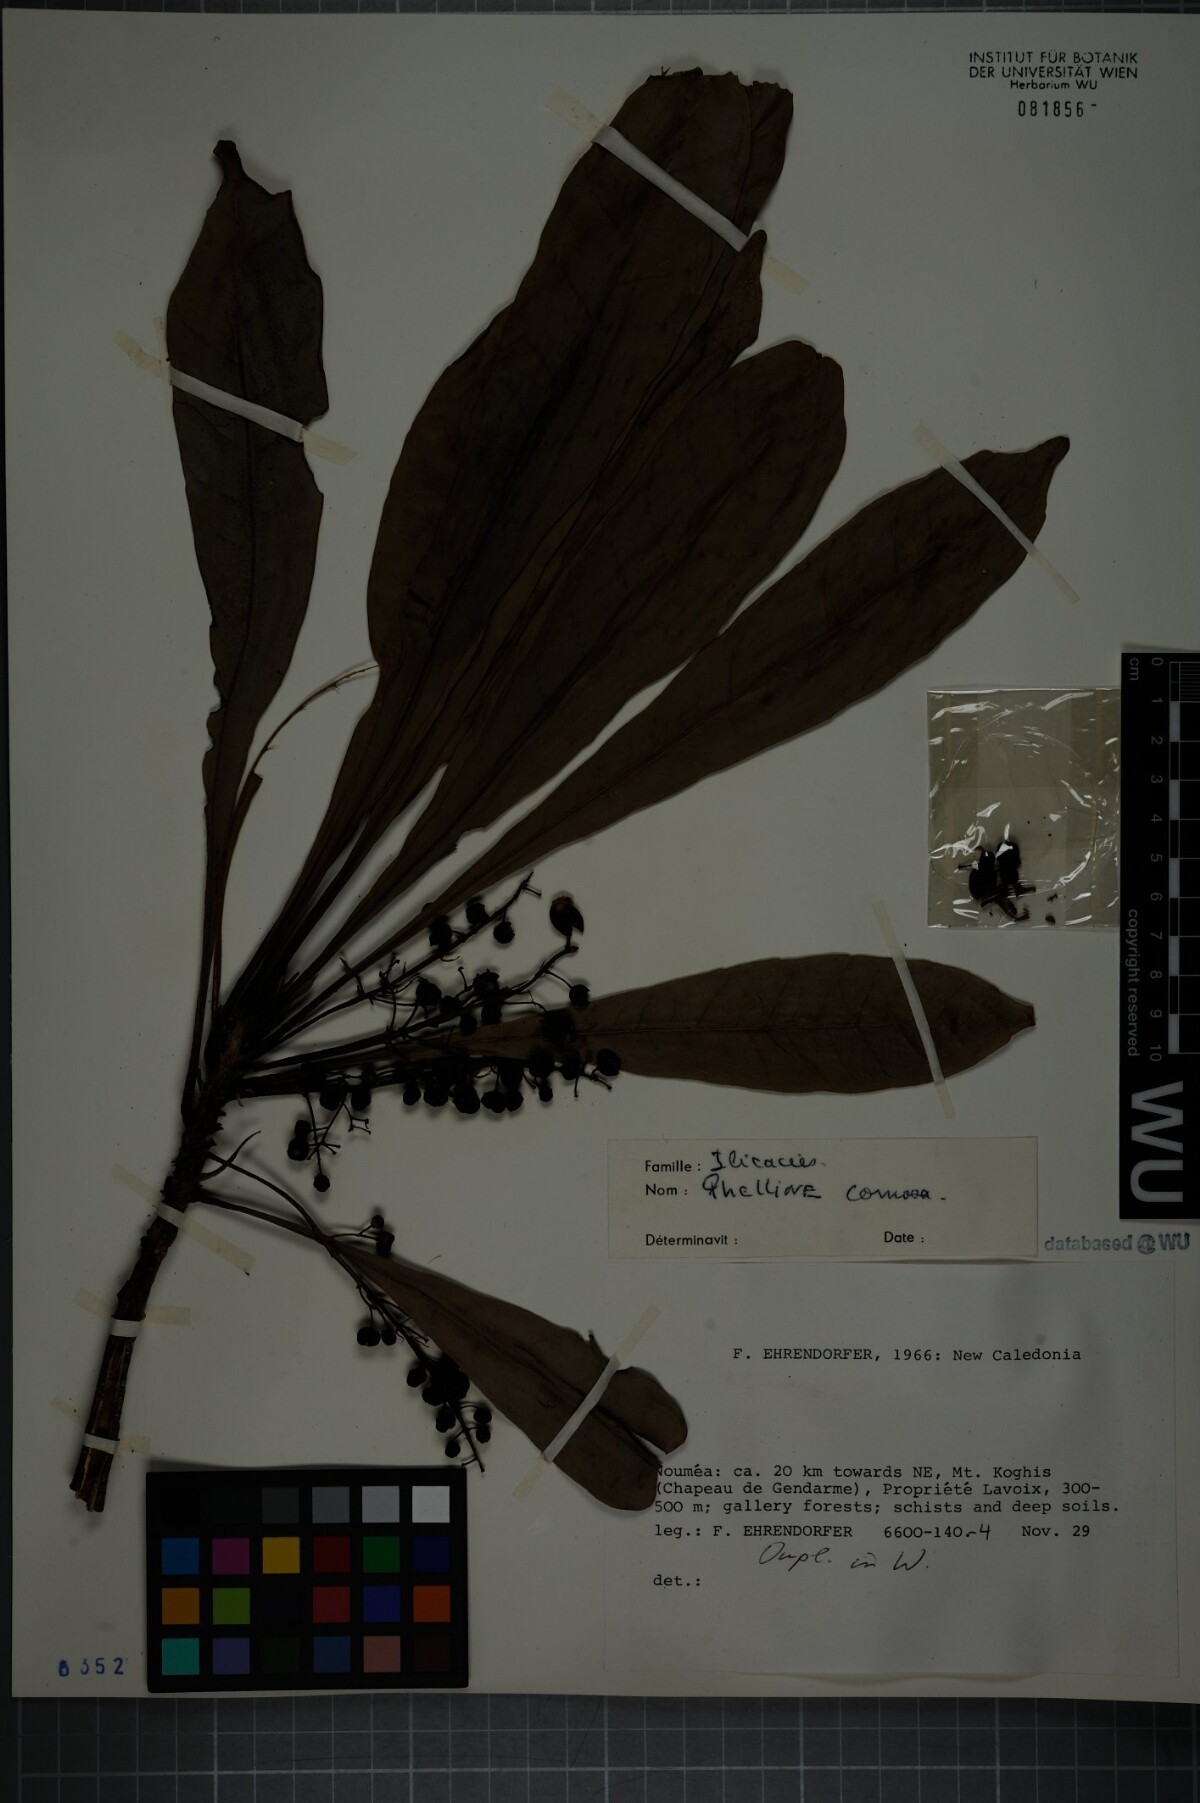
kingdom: Plantae
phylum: Tracheophyta
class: Magnoliopsida
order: Asterales
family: Phellinaceae
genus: Phelline
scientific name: Phelline comosa
